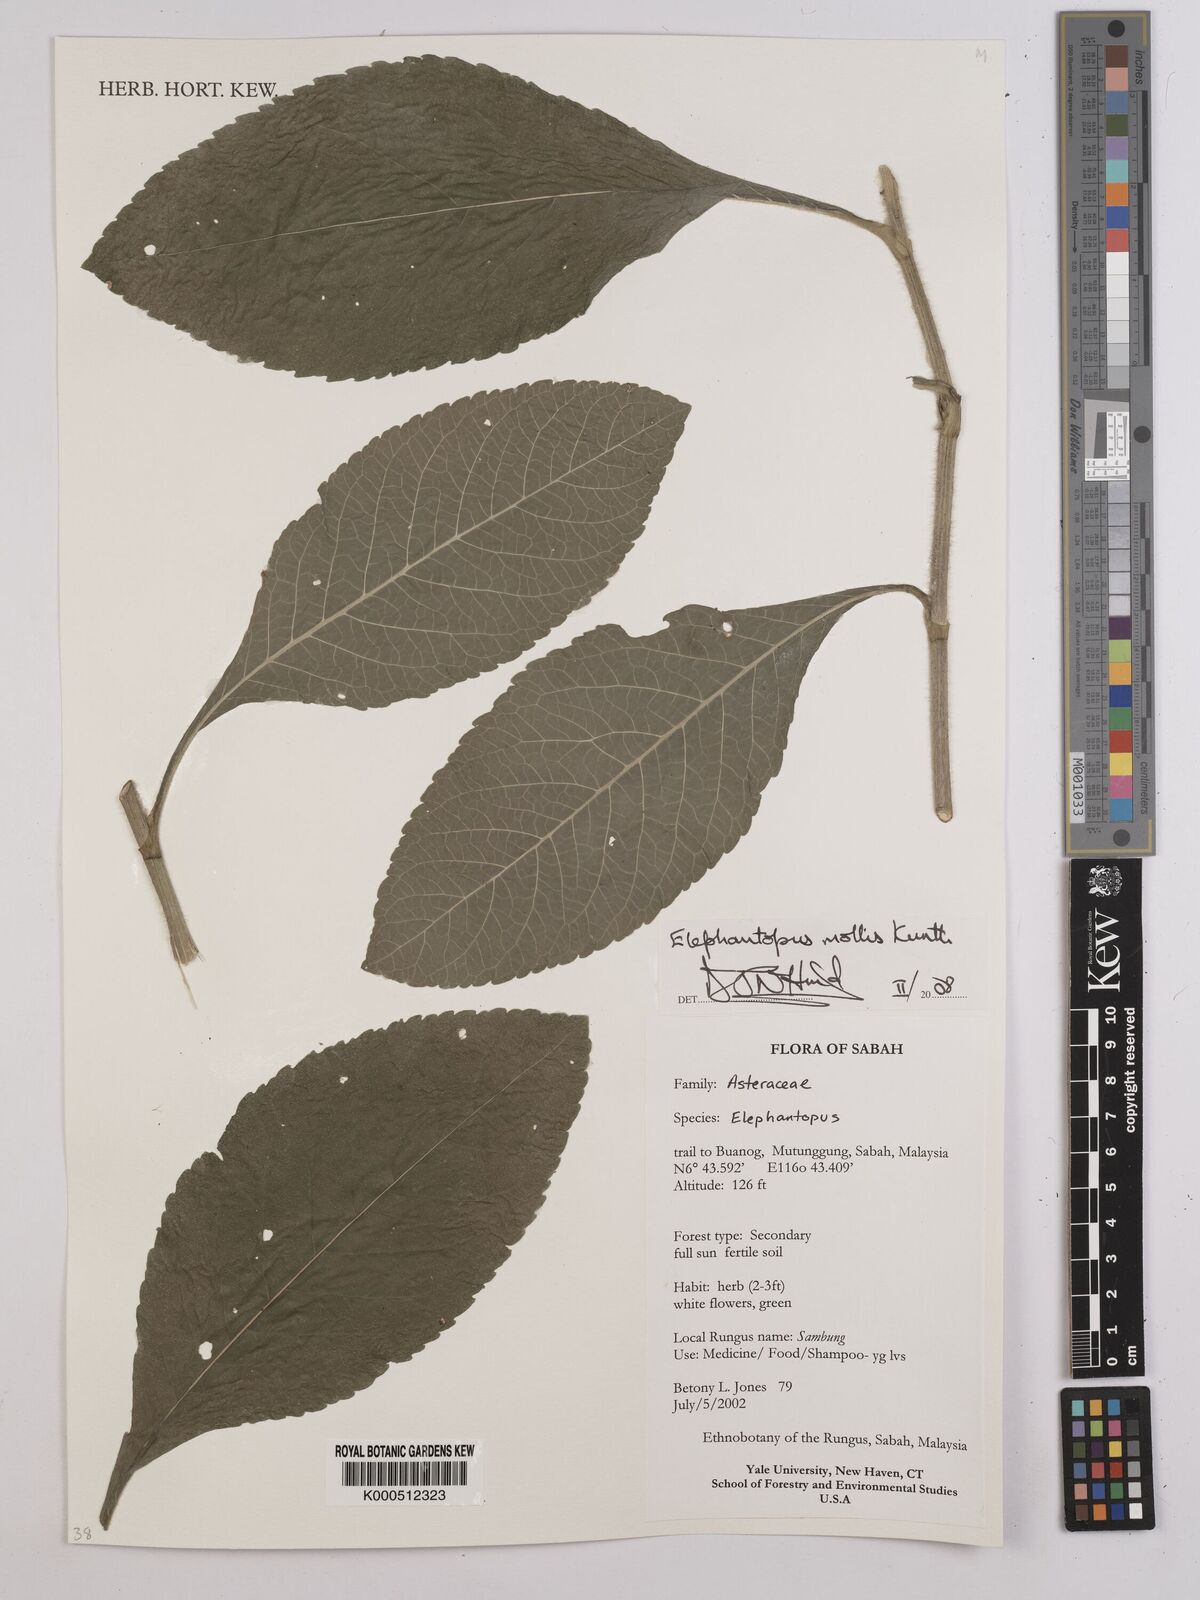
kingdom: Plantae
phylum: Tracheophyta
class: Magnoliopsida
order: Asterales
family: Asteraceae
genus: Elephantopus
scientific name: Elephantopus mollis
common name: Soft elephantsfoot
